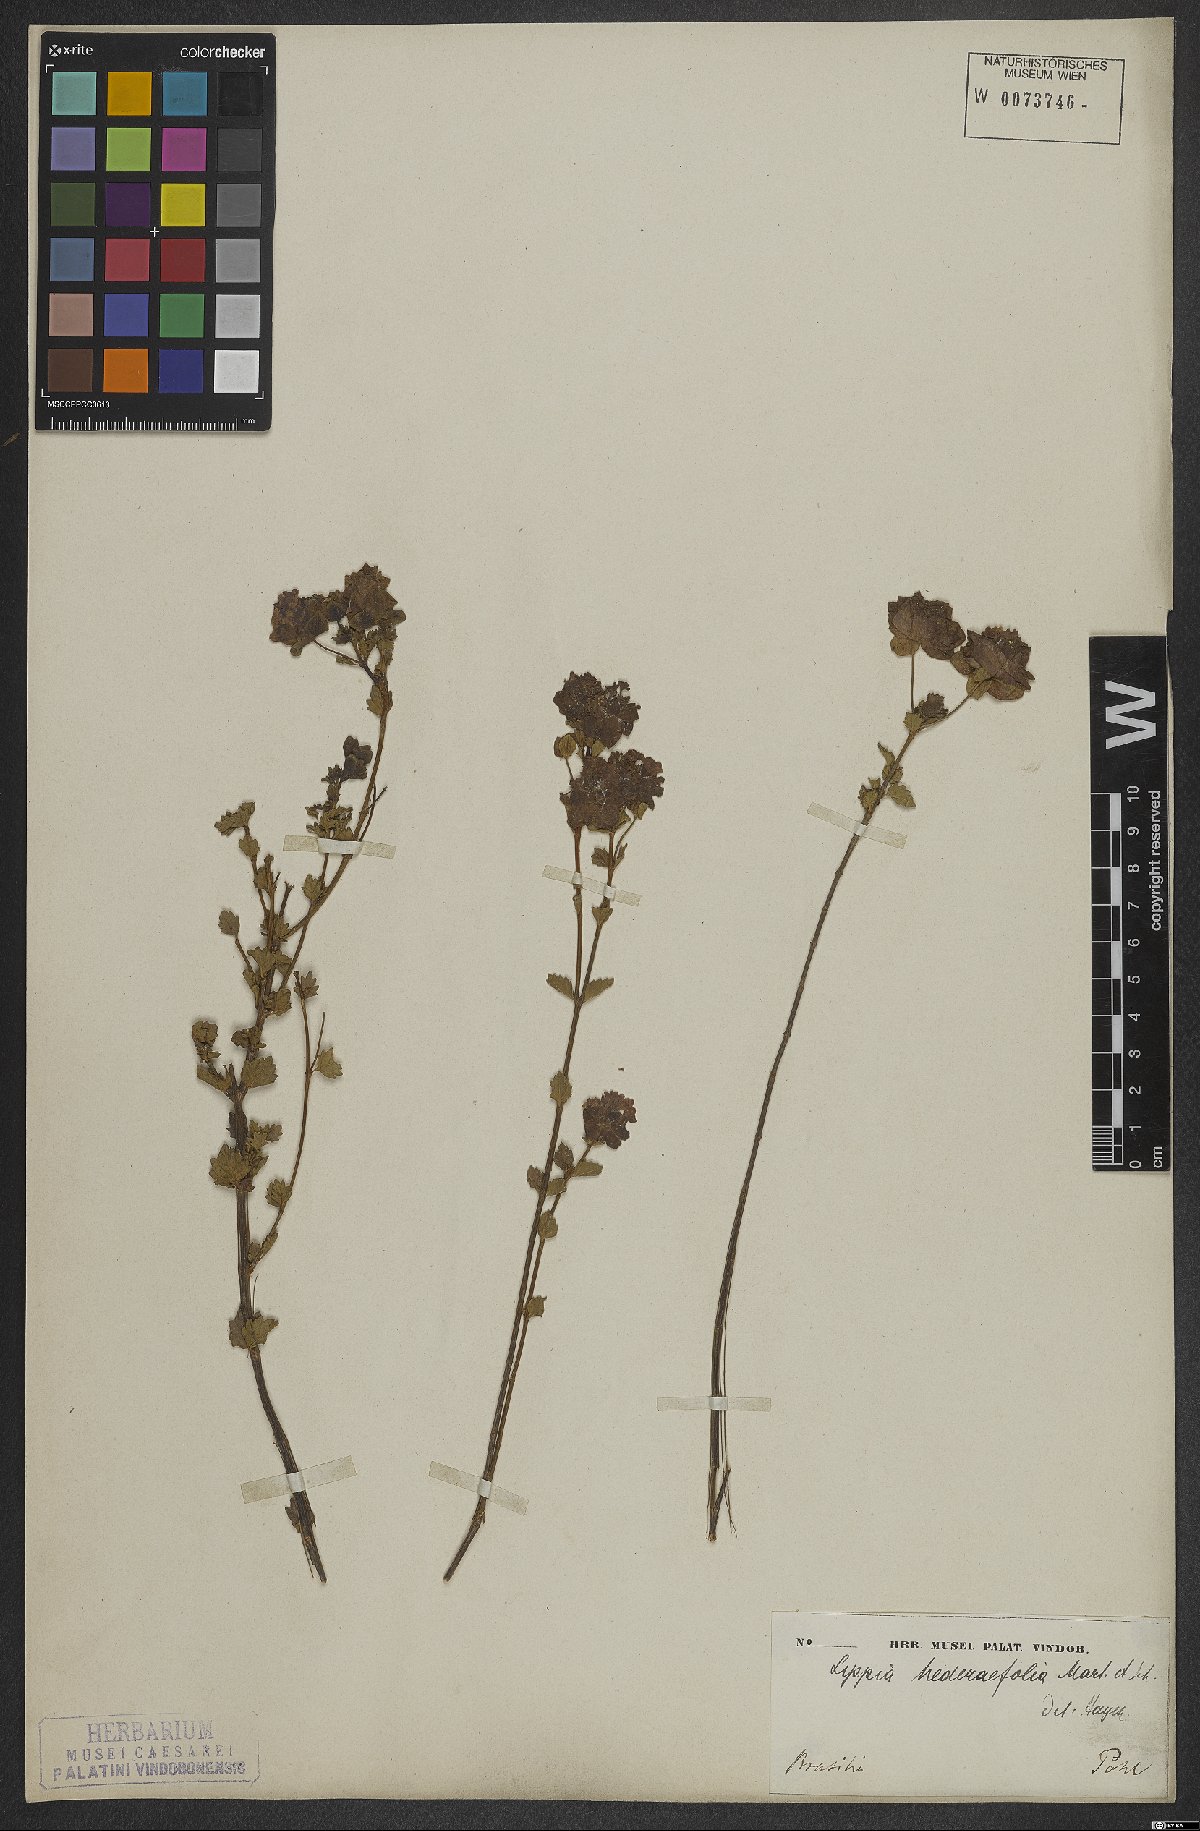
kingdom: Plantae
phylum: Tracheophyta
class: Magnoliopsida
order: Lamiales
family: Verbenaceae
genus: Lippia
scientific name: Lippia hederifolia
